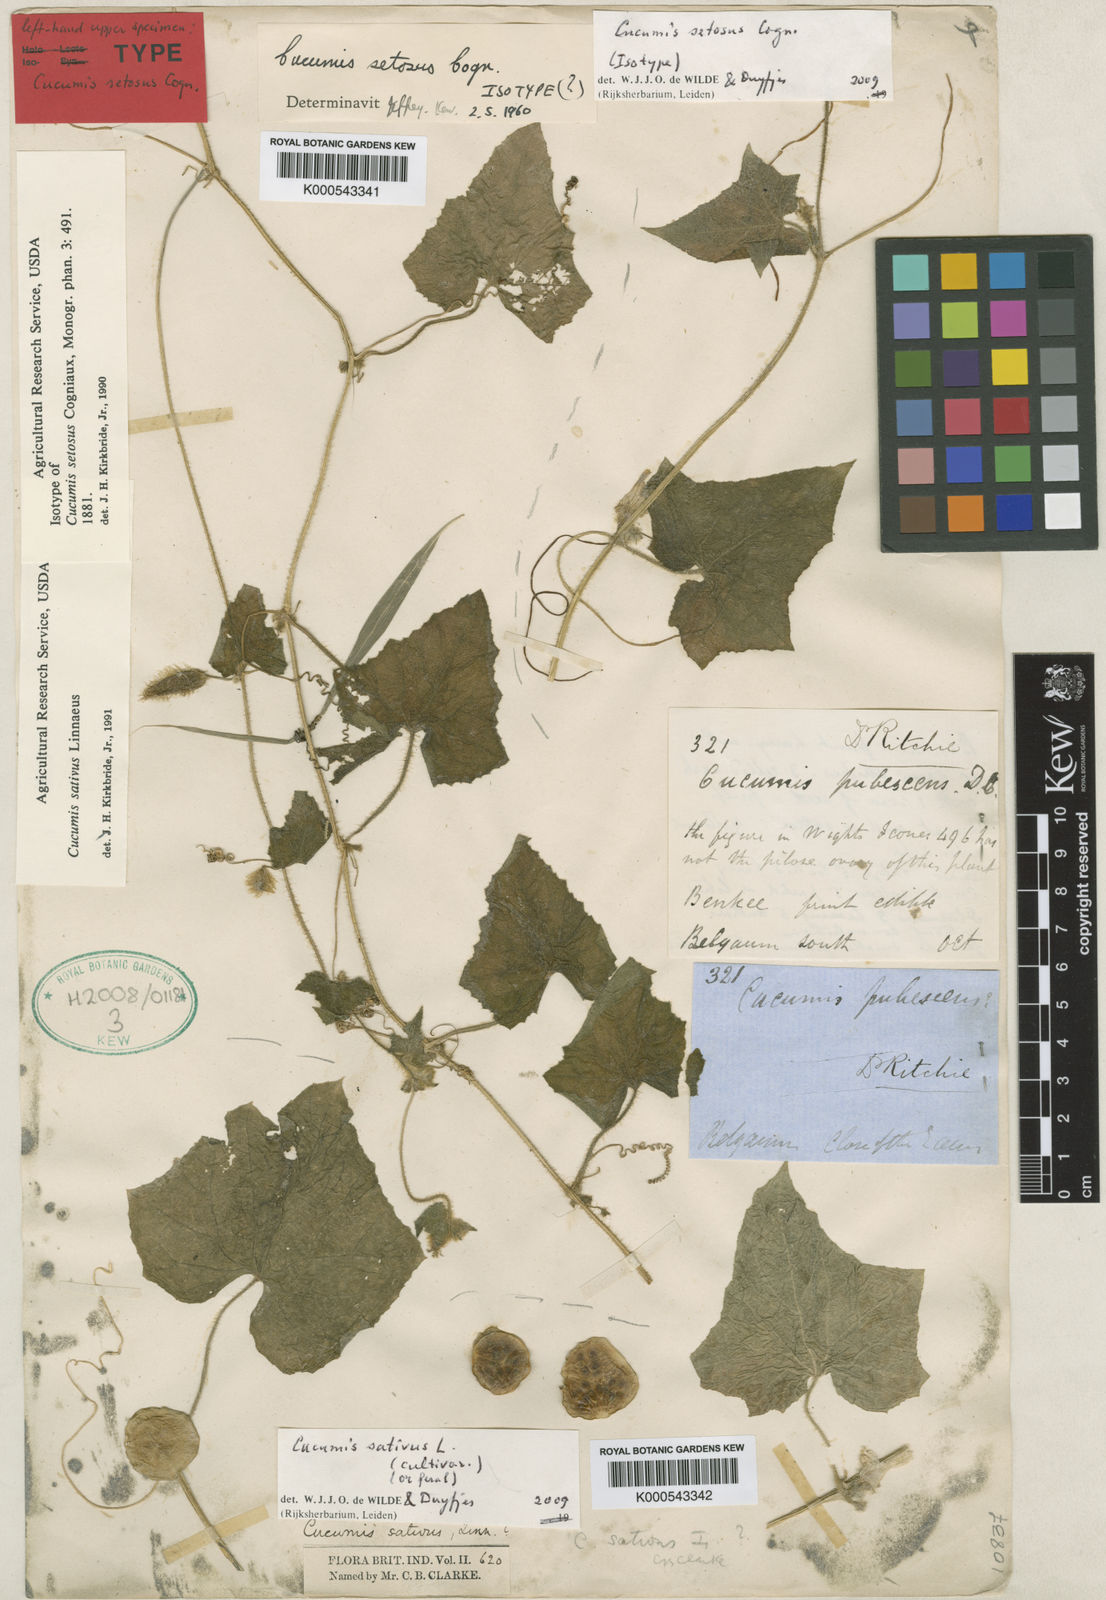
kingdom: Plantae
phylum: Tracheophyta
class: Magnoliopsida
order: Cucurbitales
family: Cucurbitaceae
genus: Cucumis
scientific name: Cucumis sativus
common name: Cucumber
